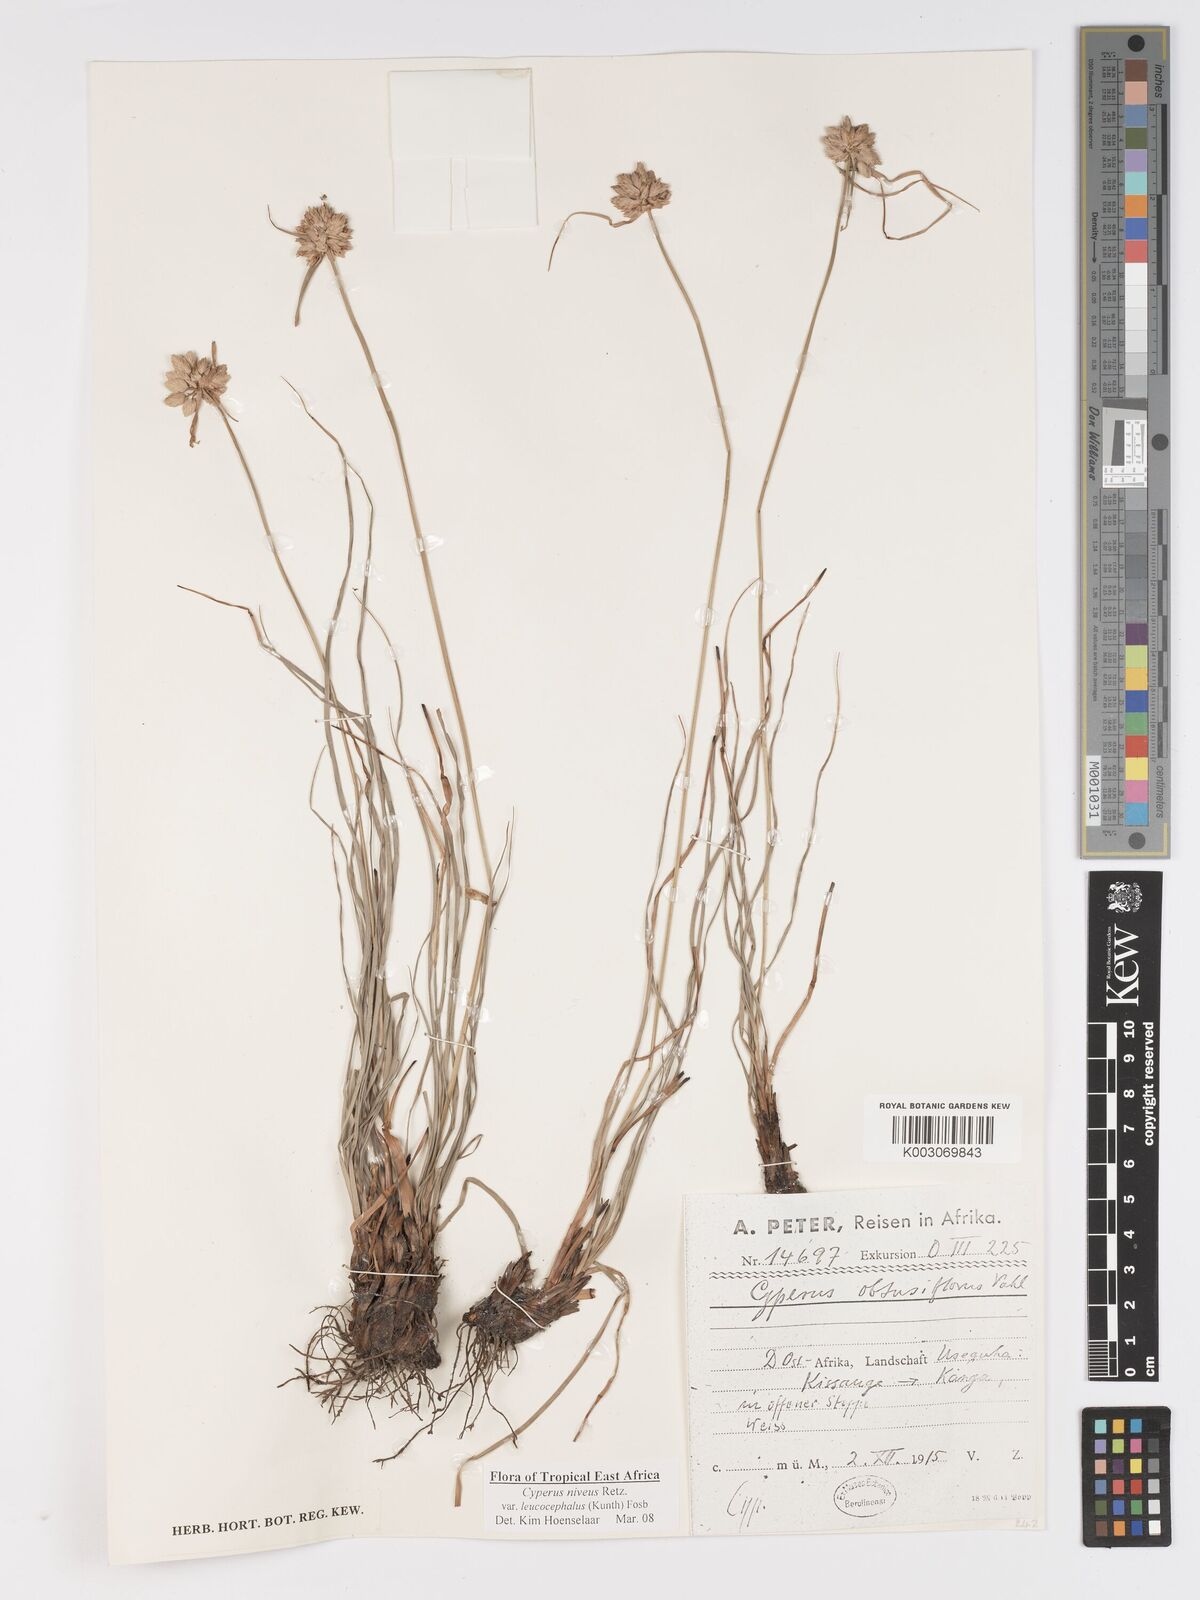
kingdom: Plantae
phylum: Tracheophyta
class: Liliopsida
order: Poales
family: Cyperaceae
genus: Cyperus
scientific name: Cyperus niveus
